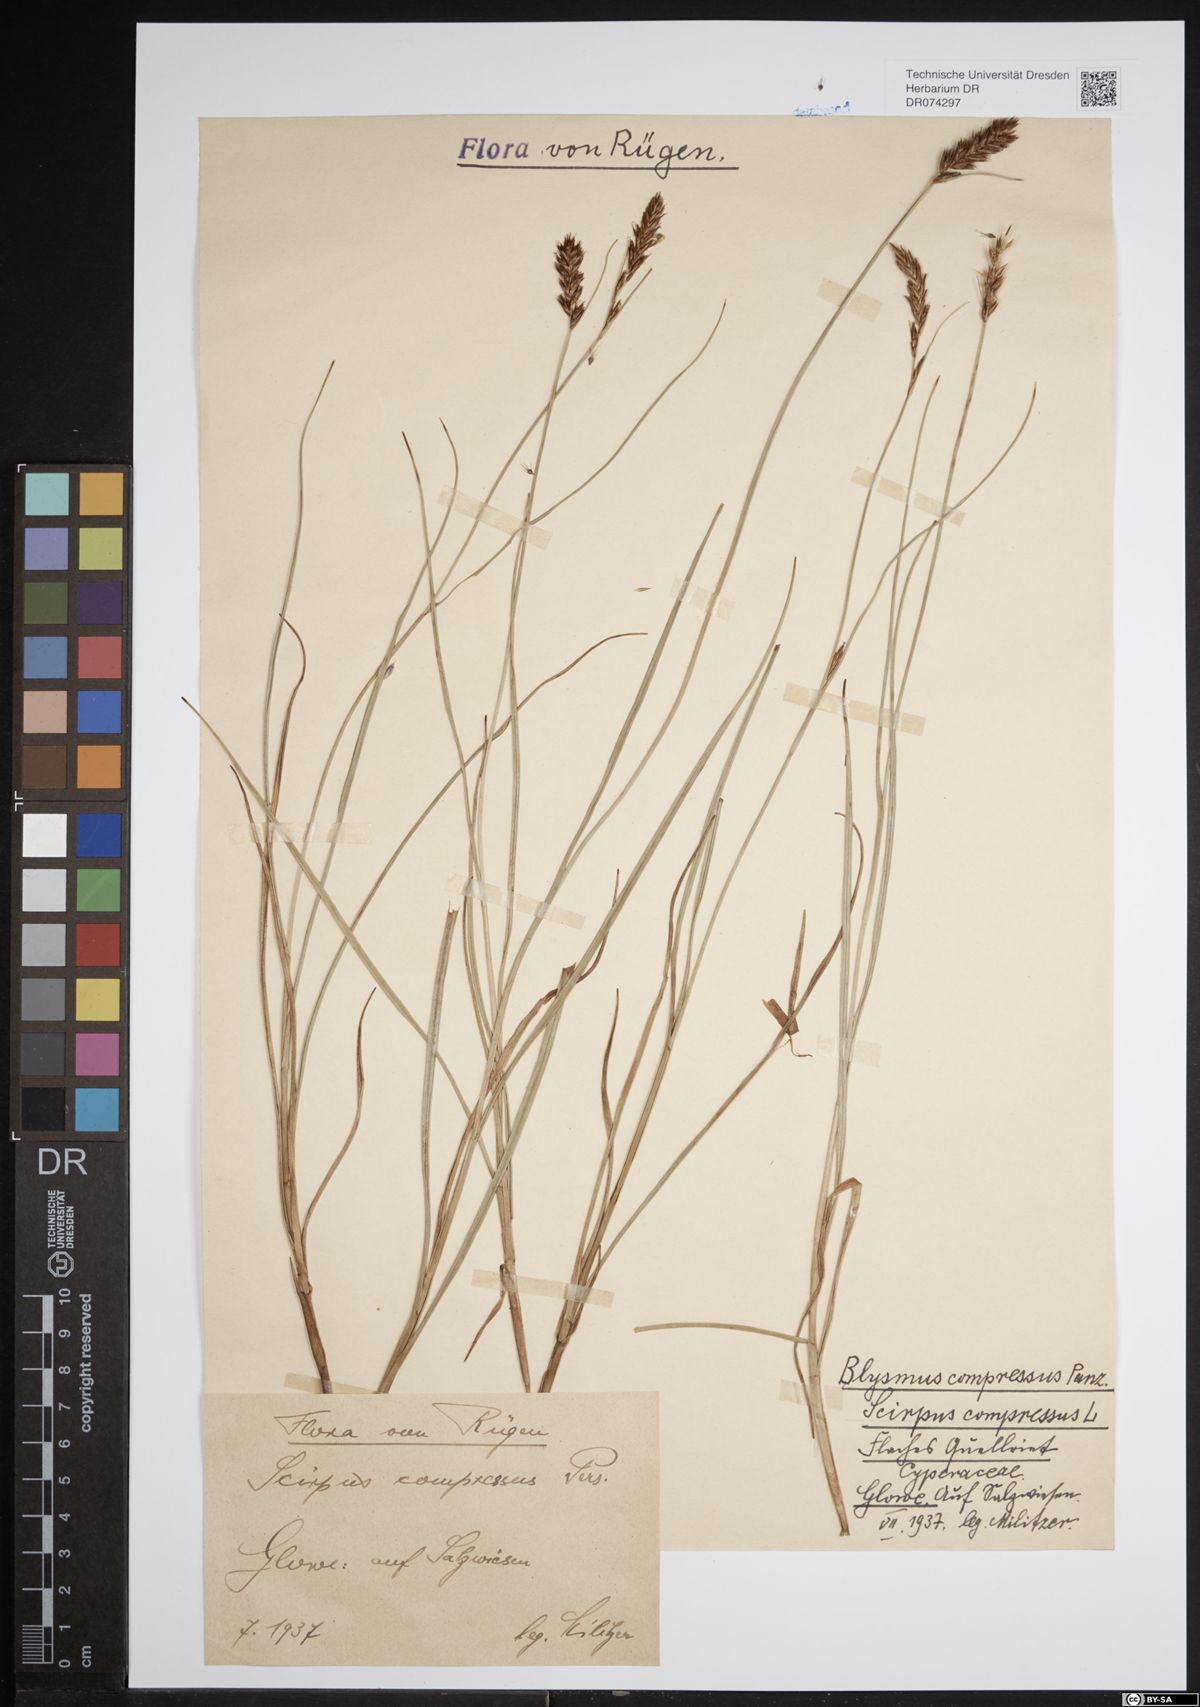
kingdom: Plantae
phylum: Tracheophyta
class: Liliopsida
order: Poales
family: Cyperaceae
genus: Blysmus
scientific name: Blysmus compressus
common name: Flat-sedge
